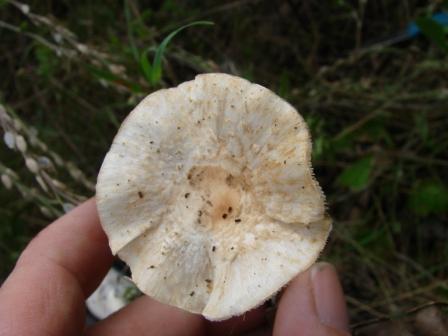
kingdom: Fungi
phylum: Basidiomycota
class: Agaricomycetes
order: Agaricales
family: Agaricaceae
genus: Lepiota
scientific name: Lepiota cristata
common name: stinkende parasolhat
